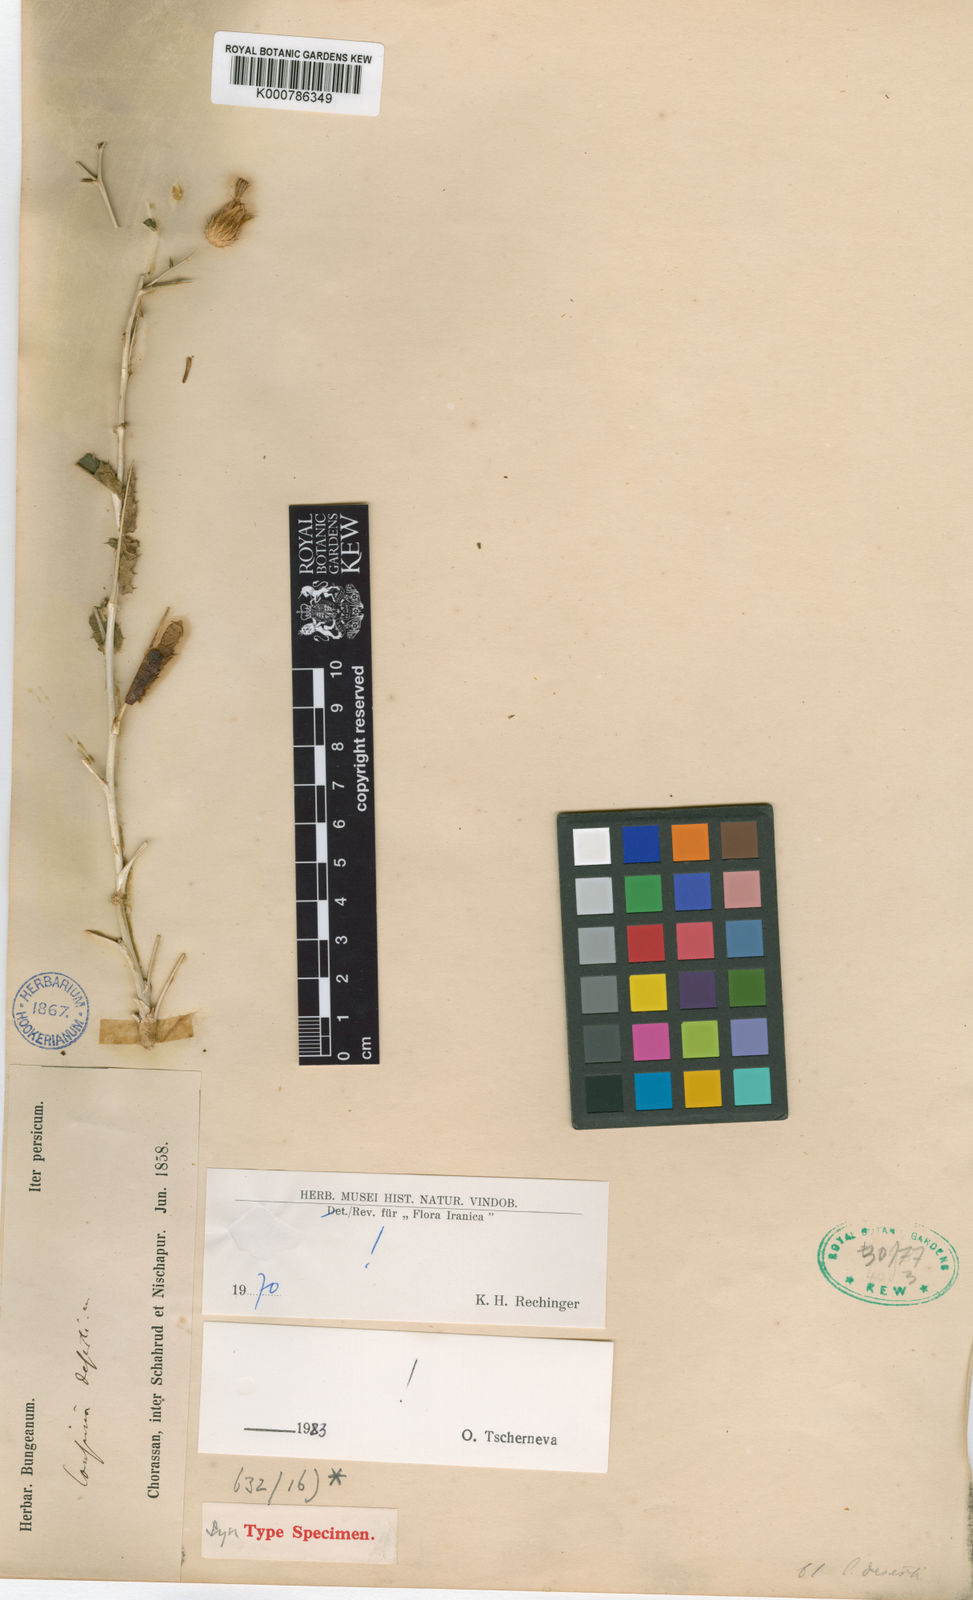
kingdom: Plantae
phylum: Tracheophyta
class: Magnoliopsida
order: Asterales
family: Asteraceae
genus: Cousinia
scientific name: Cousinia arida
